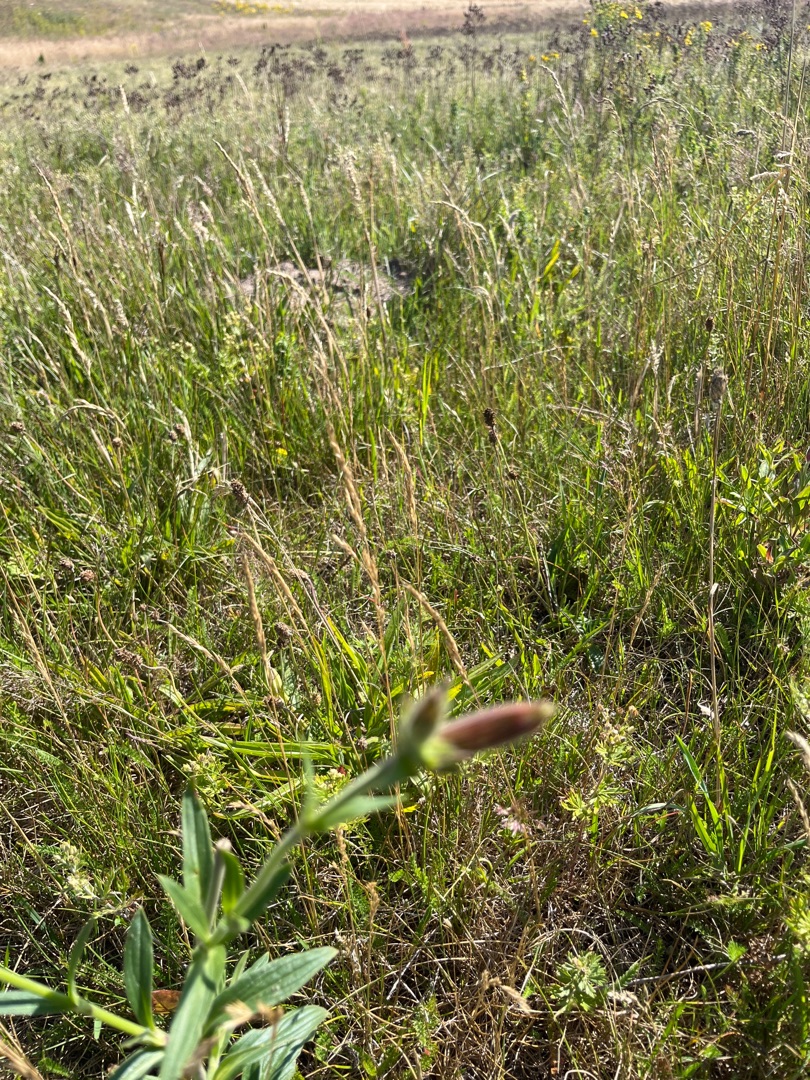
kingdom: Plantae
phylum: Tracheophyta
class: Magnoliopsida
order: Caryophyllales
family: Caryophyllaceae
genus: Silene
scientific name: Silene latifolia
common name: Aftenpragtstjerne
